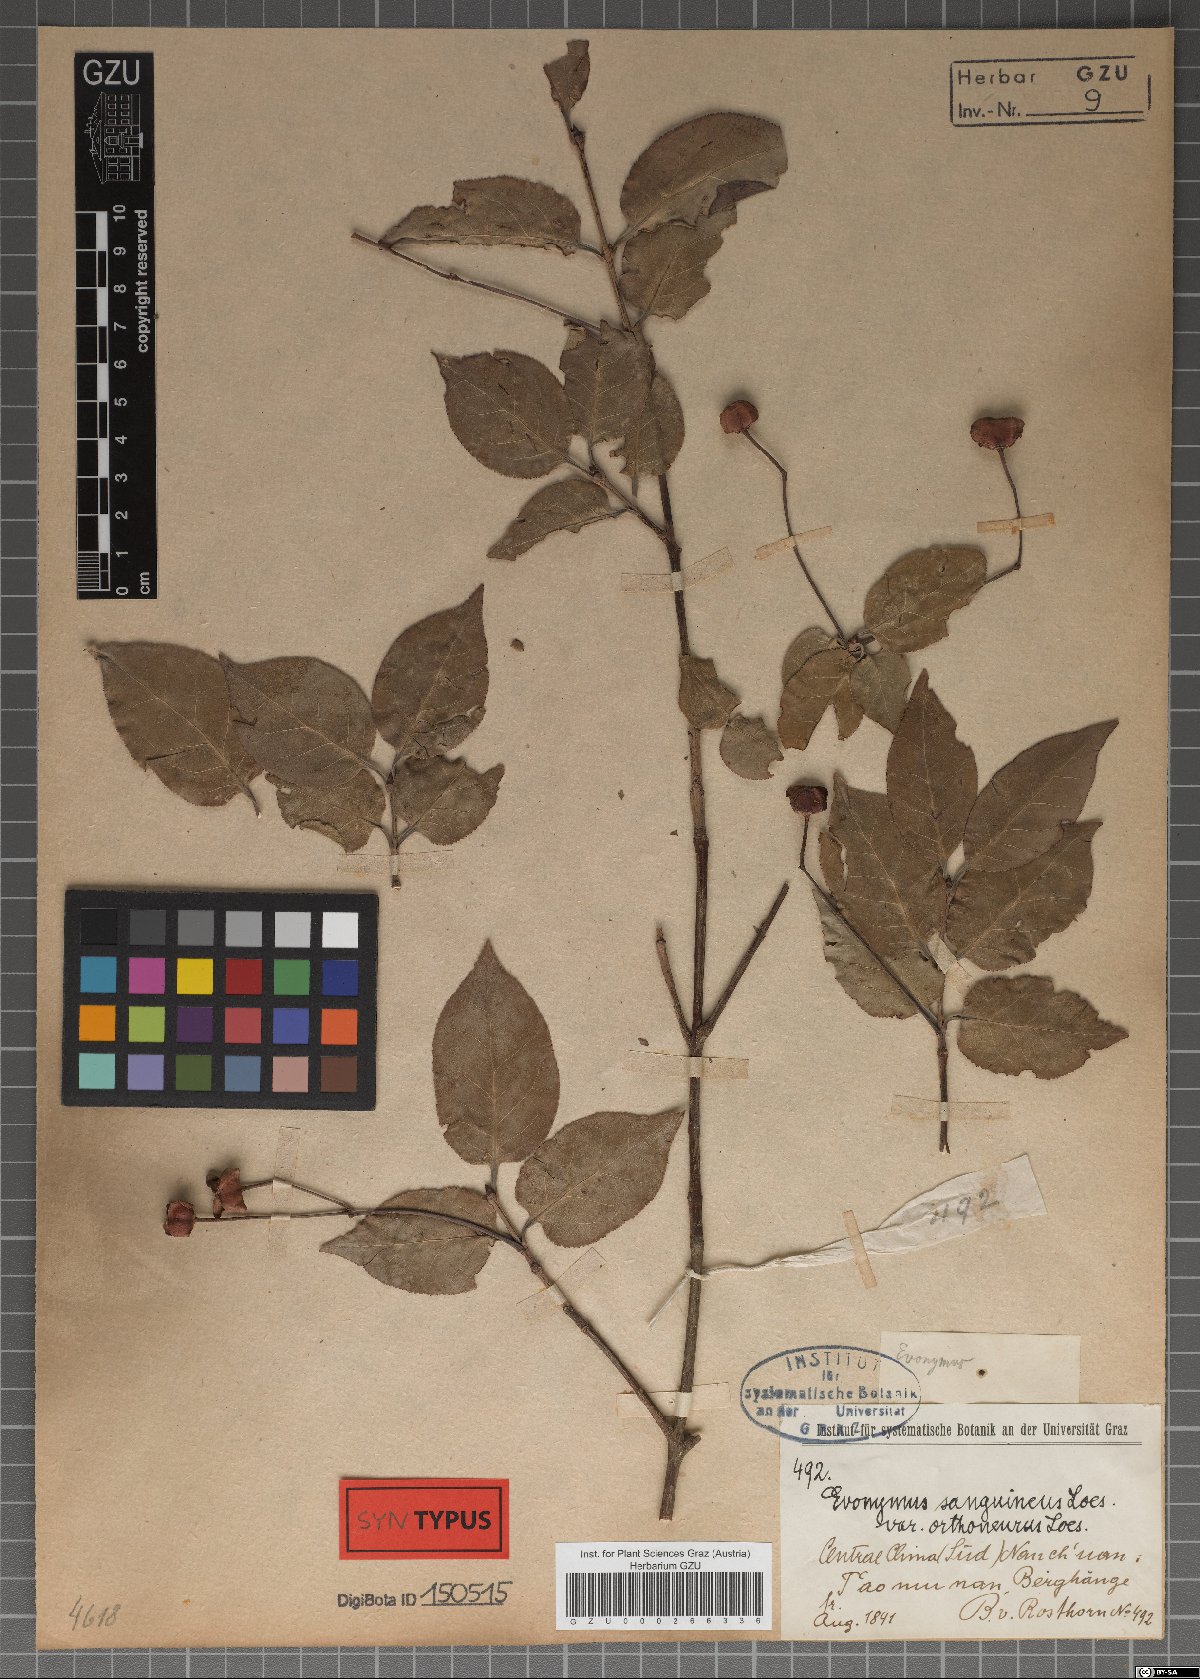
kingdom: Plantae
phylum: Tracheophyta
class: Magnoliopsida
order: Celastrales
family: Celastraceae
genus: Euonymus
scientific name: Euonymus sanguineus
